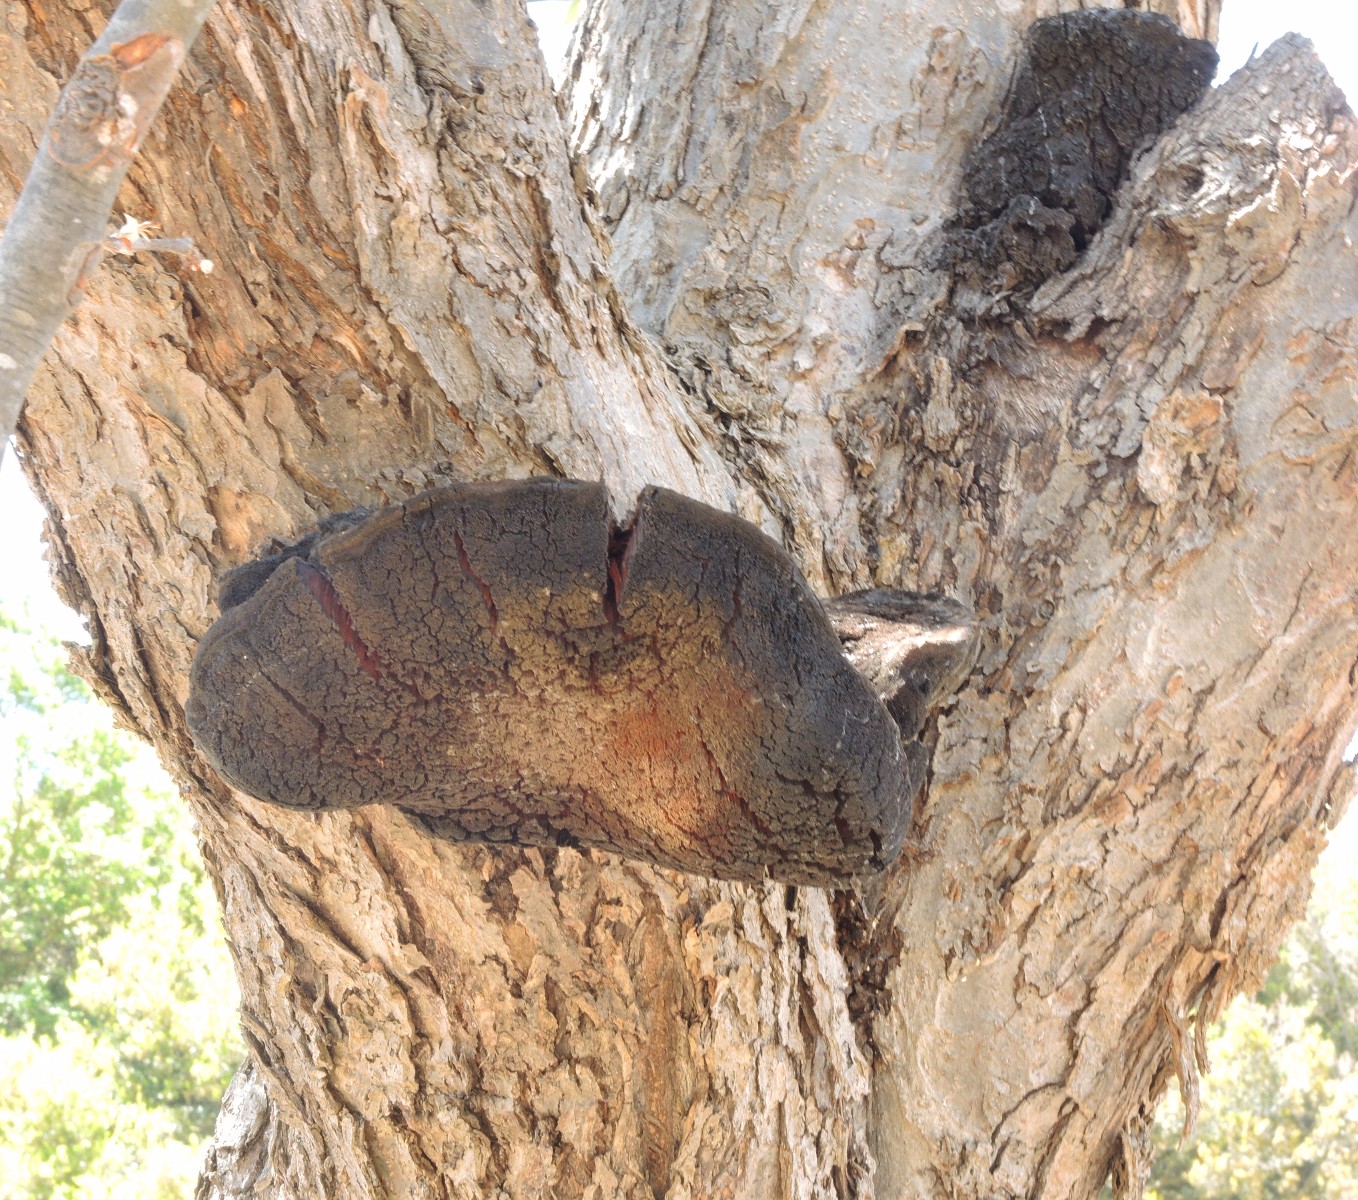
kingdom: Fungi
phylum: Basidiomycota
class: Agaricomycetes
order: Hymenochaetales
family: Hymenochaetaceae
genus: Inonotus
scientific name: Inonotus hispidus
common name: børstehåret spejlporesvamp
